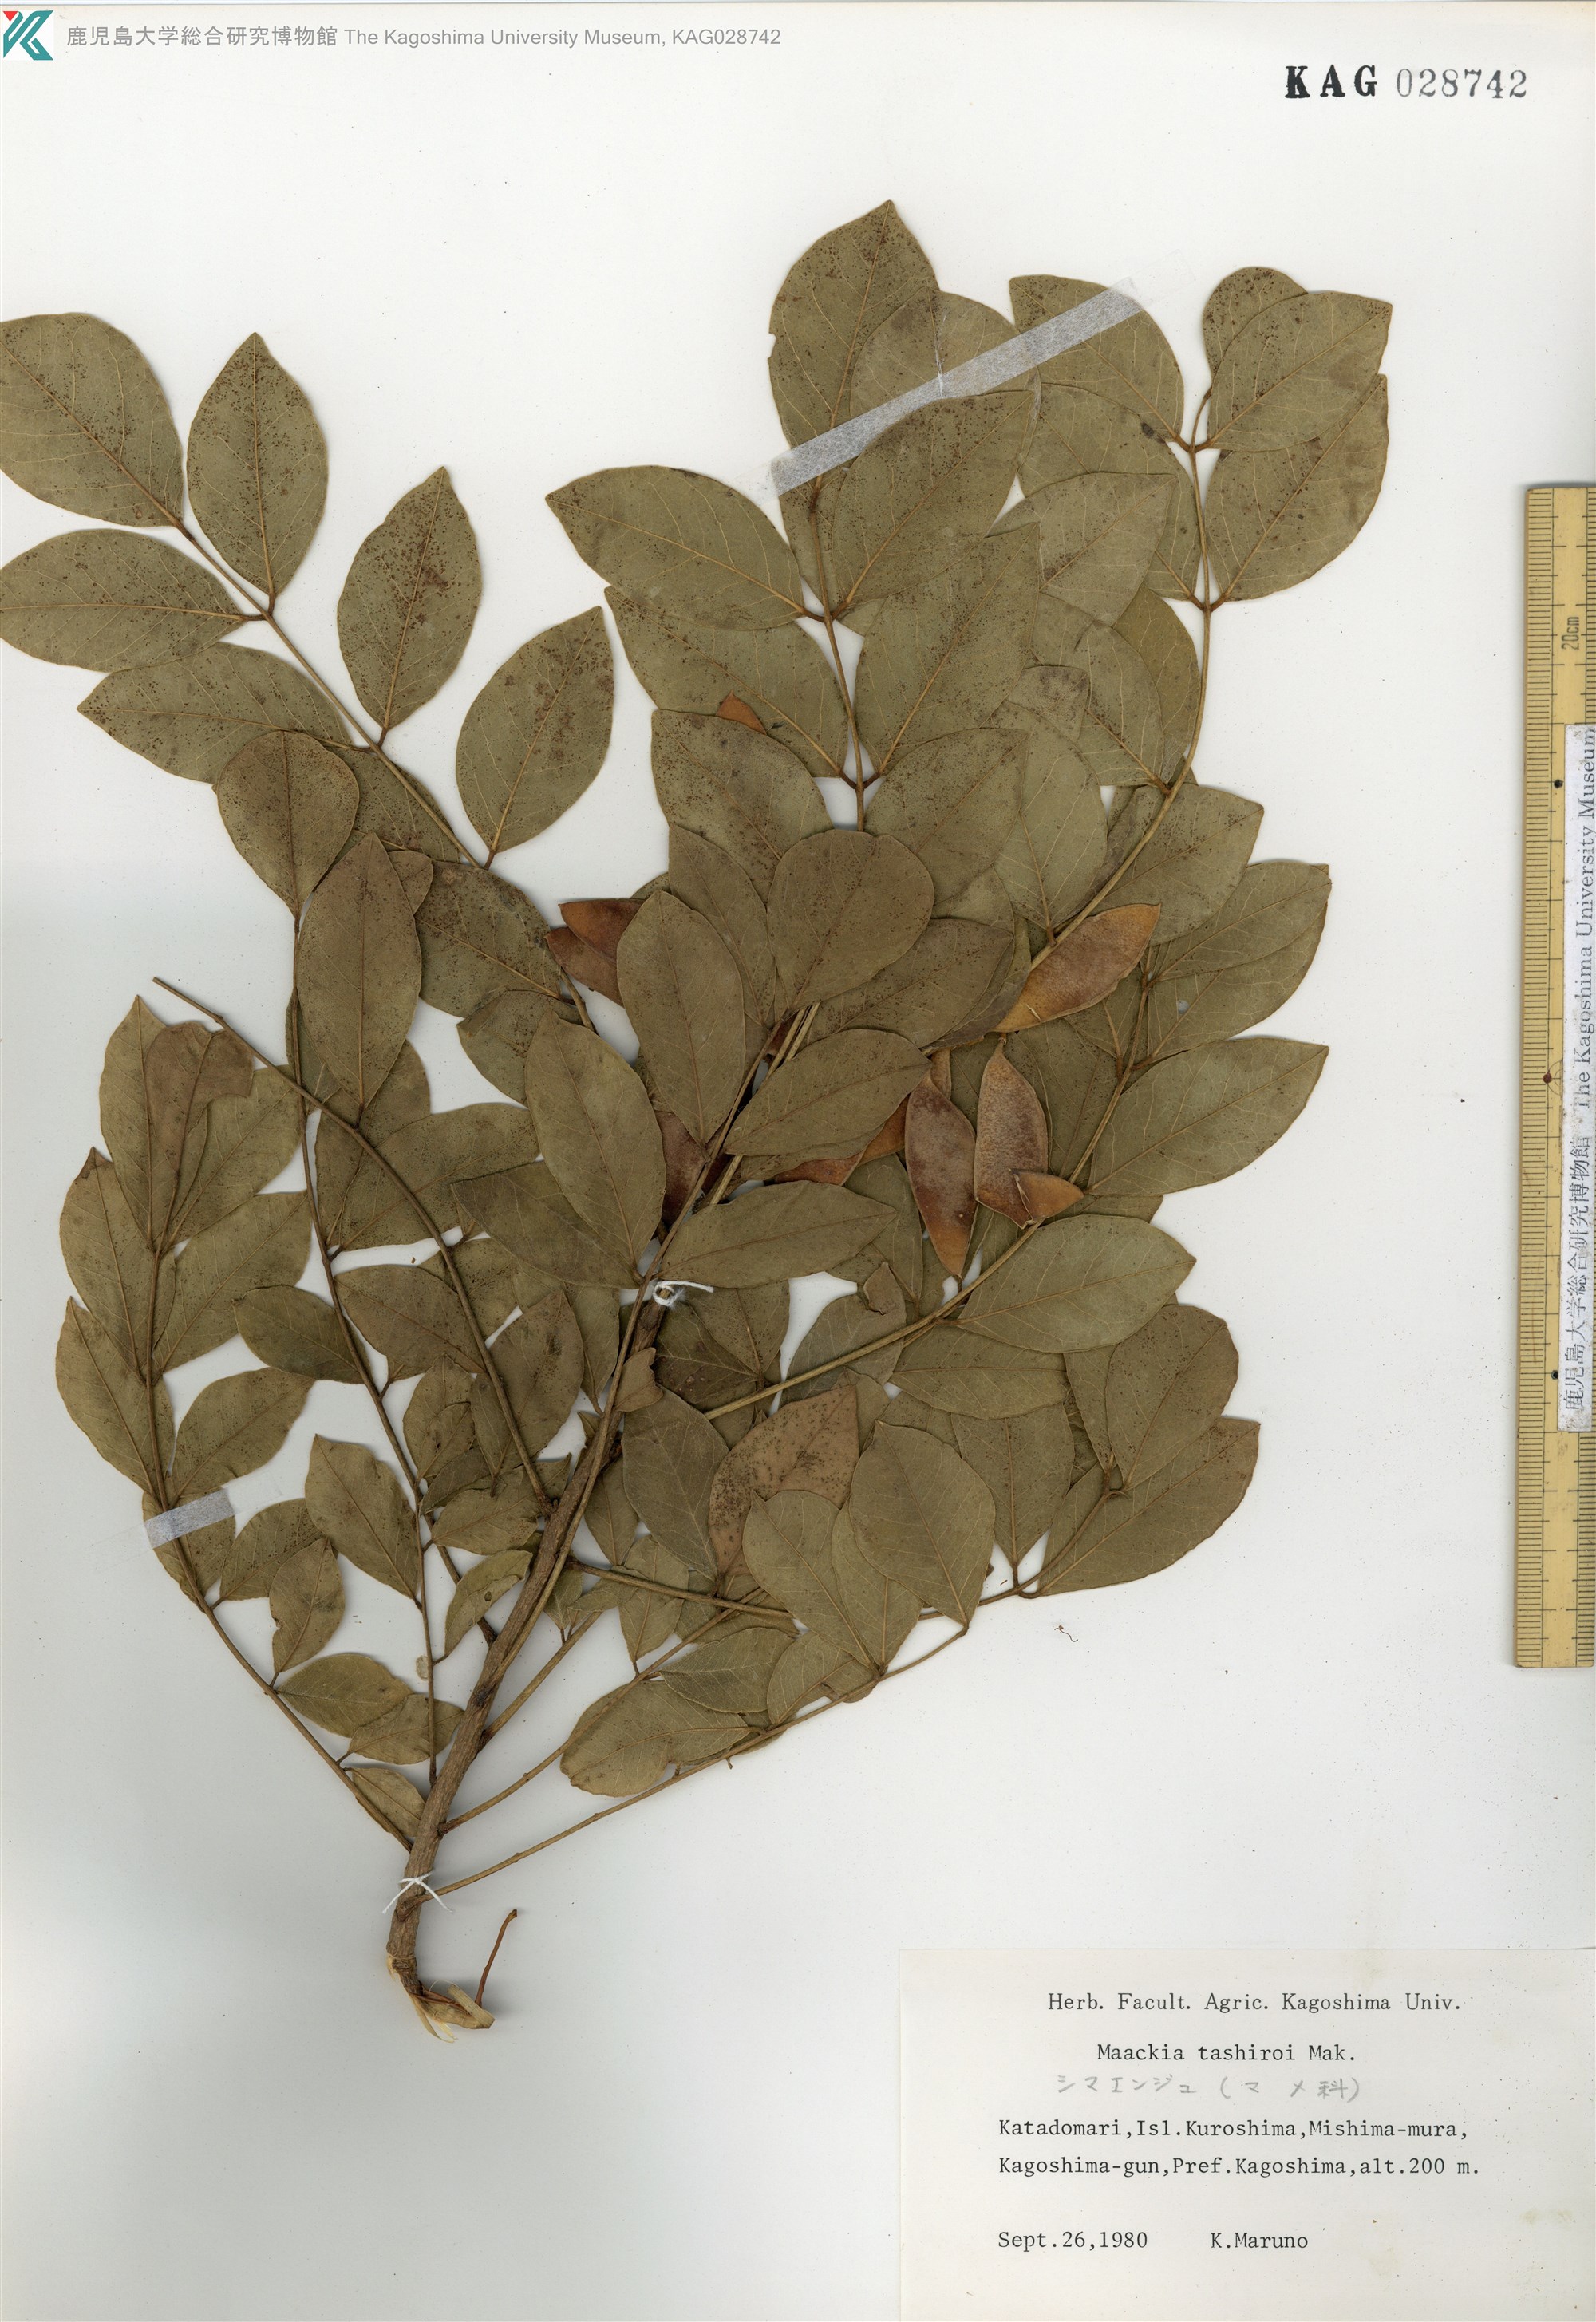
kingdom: Plantae
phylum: Tracheophyta
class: Magnoliopsida
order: Fabales
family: Fabaceae
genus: Maackia
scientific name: Maackia tashiroi
